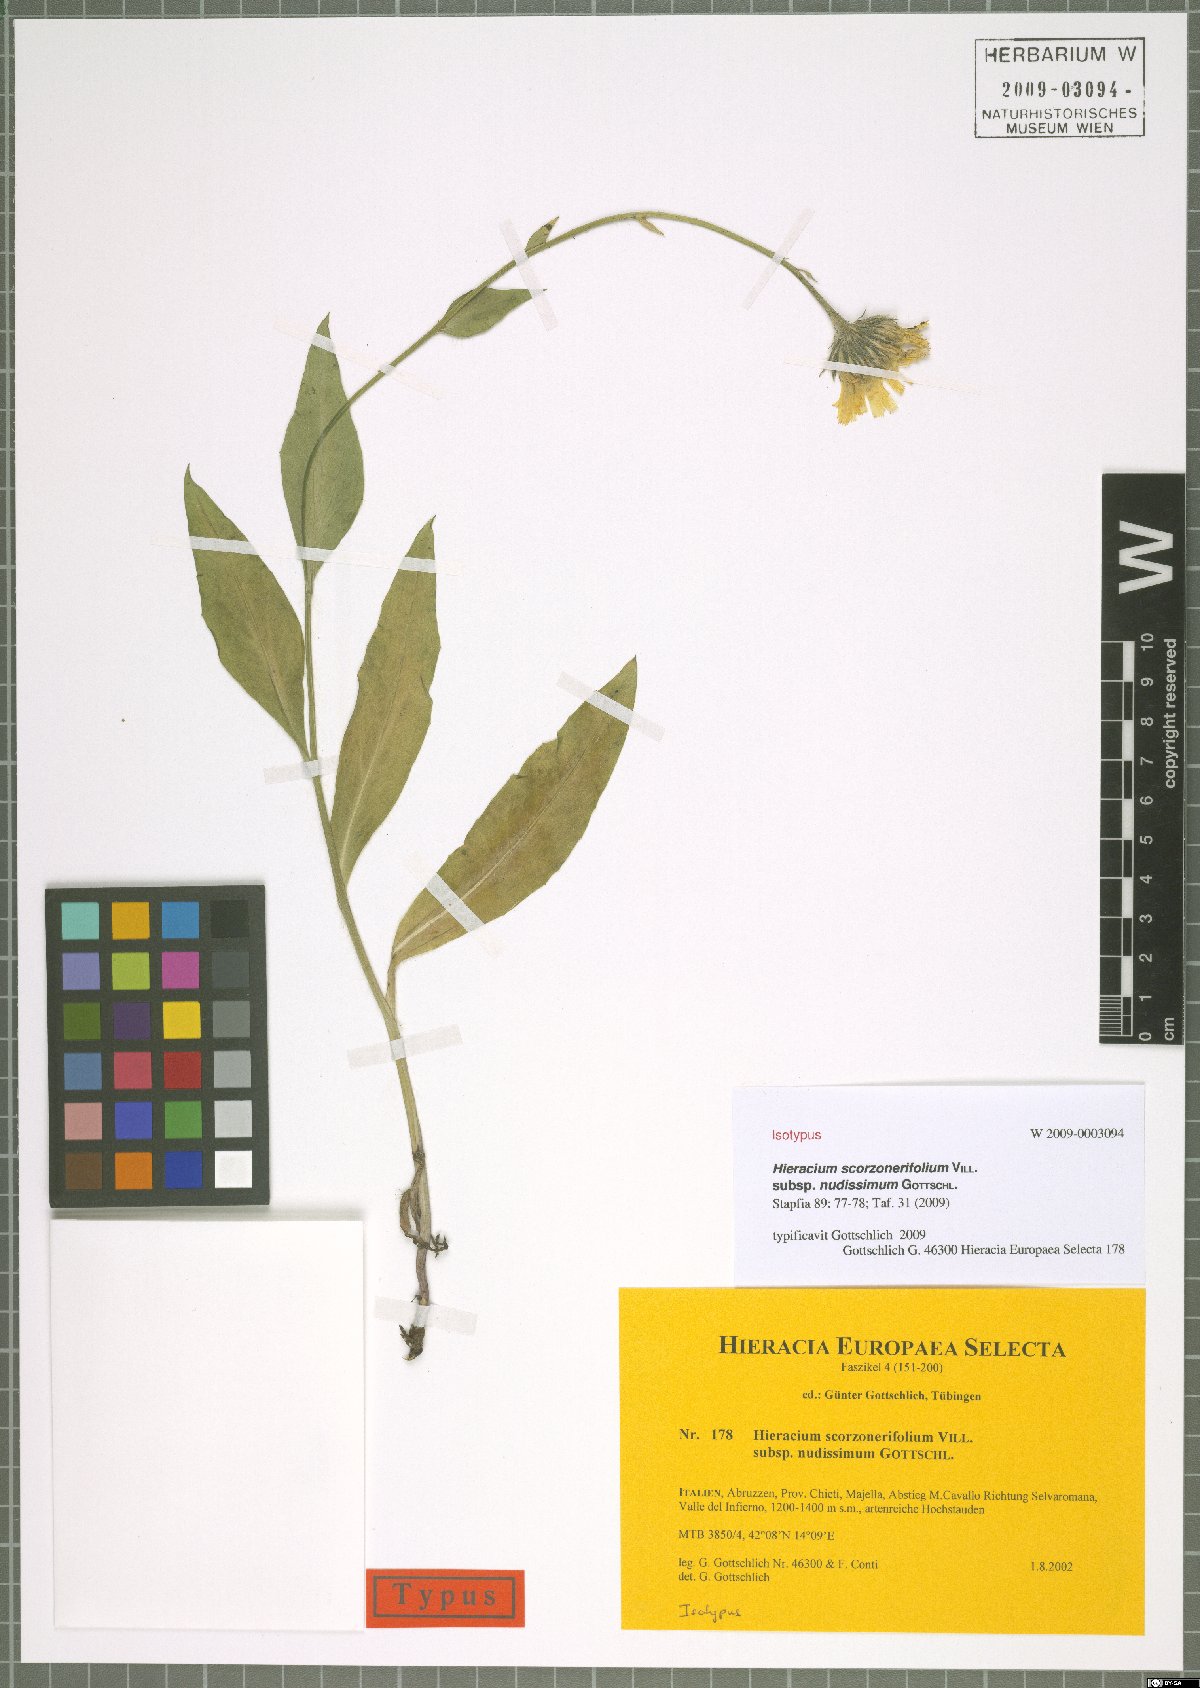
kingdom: Plantae
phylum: Tracheophyta
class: Magnoliopsida
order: Asterales
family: Asteraceae
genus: Hieracium
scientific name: Hieracium scorzonerifolium
